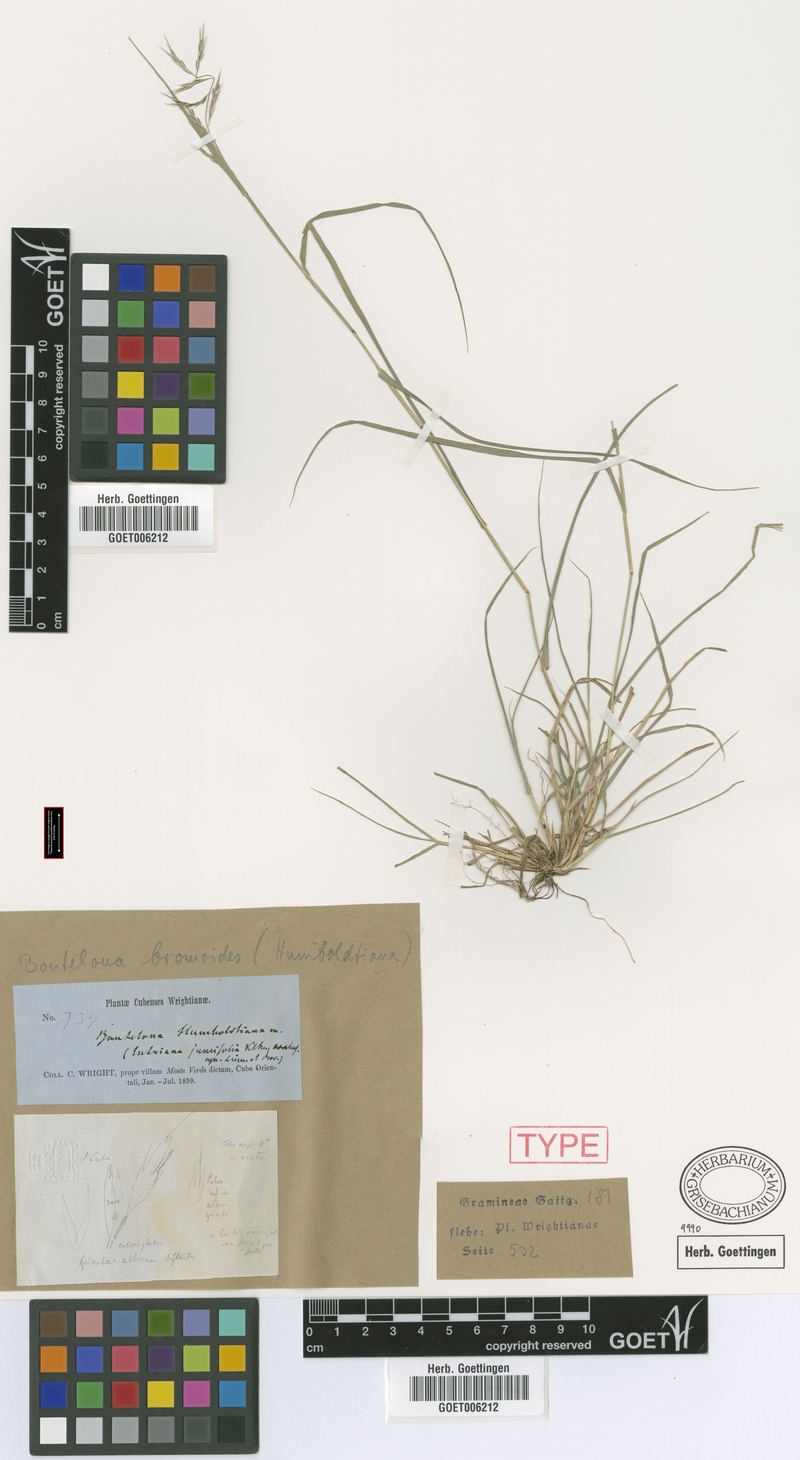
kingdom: Plantae
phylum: Tracheophyta
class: Liliopsida
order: Poales
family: Poaceae
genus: Bouteloua
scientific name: Bouteloua americana
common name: Mule grass
